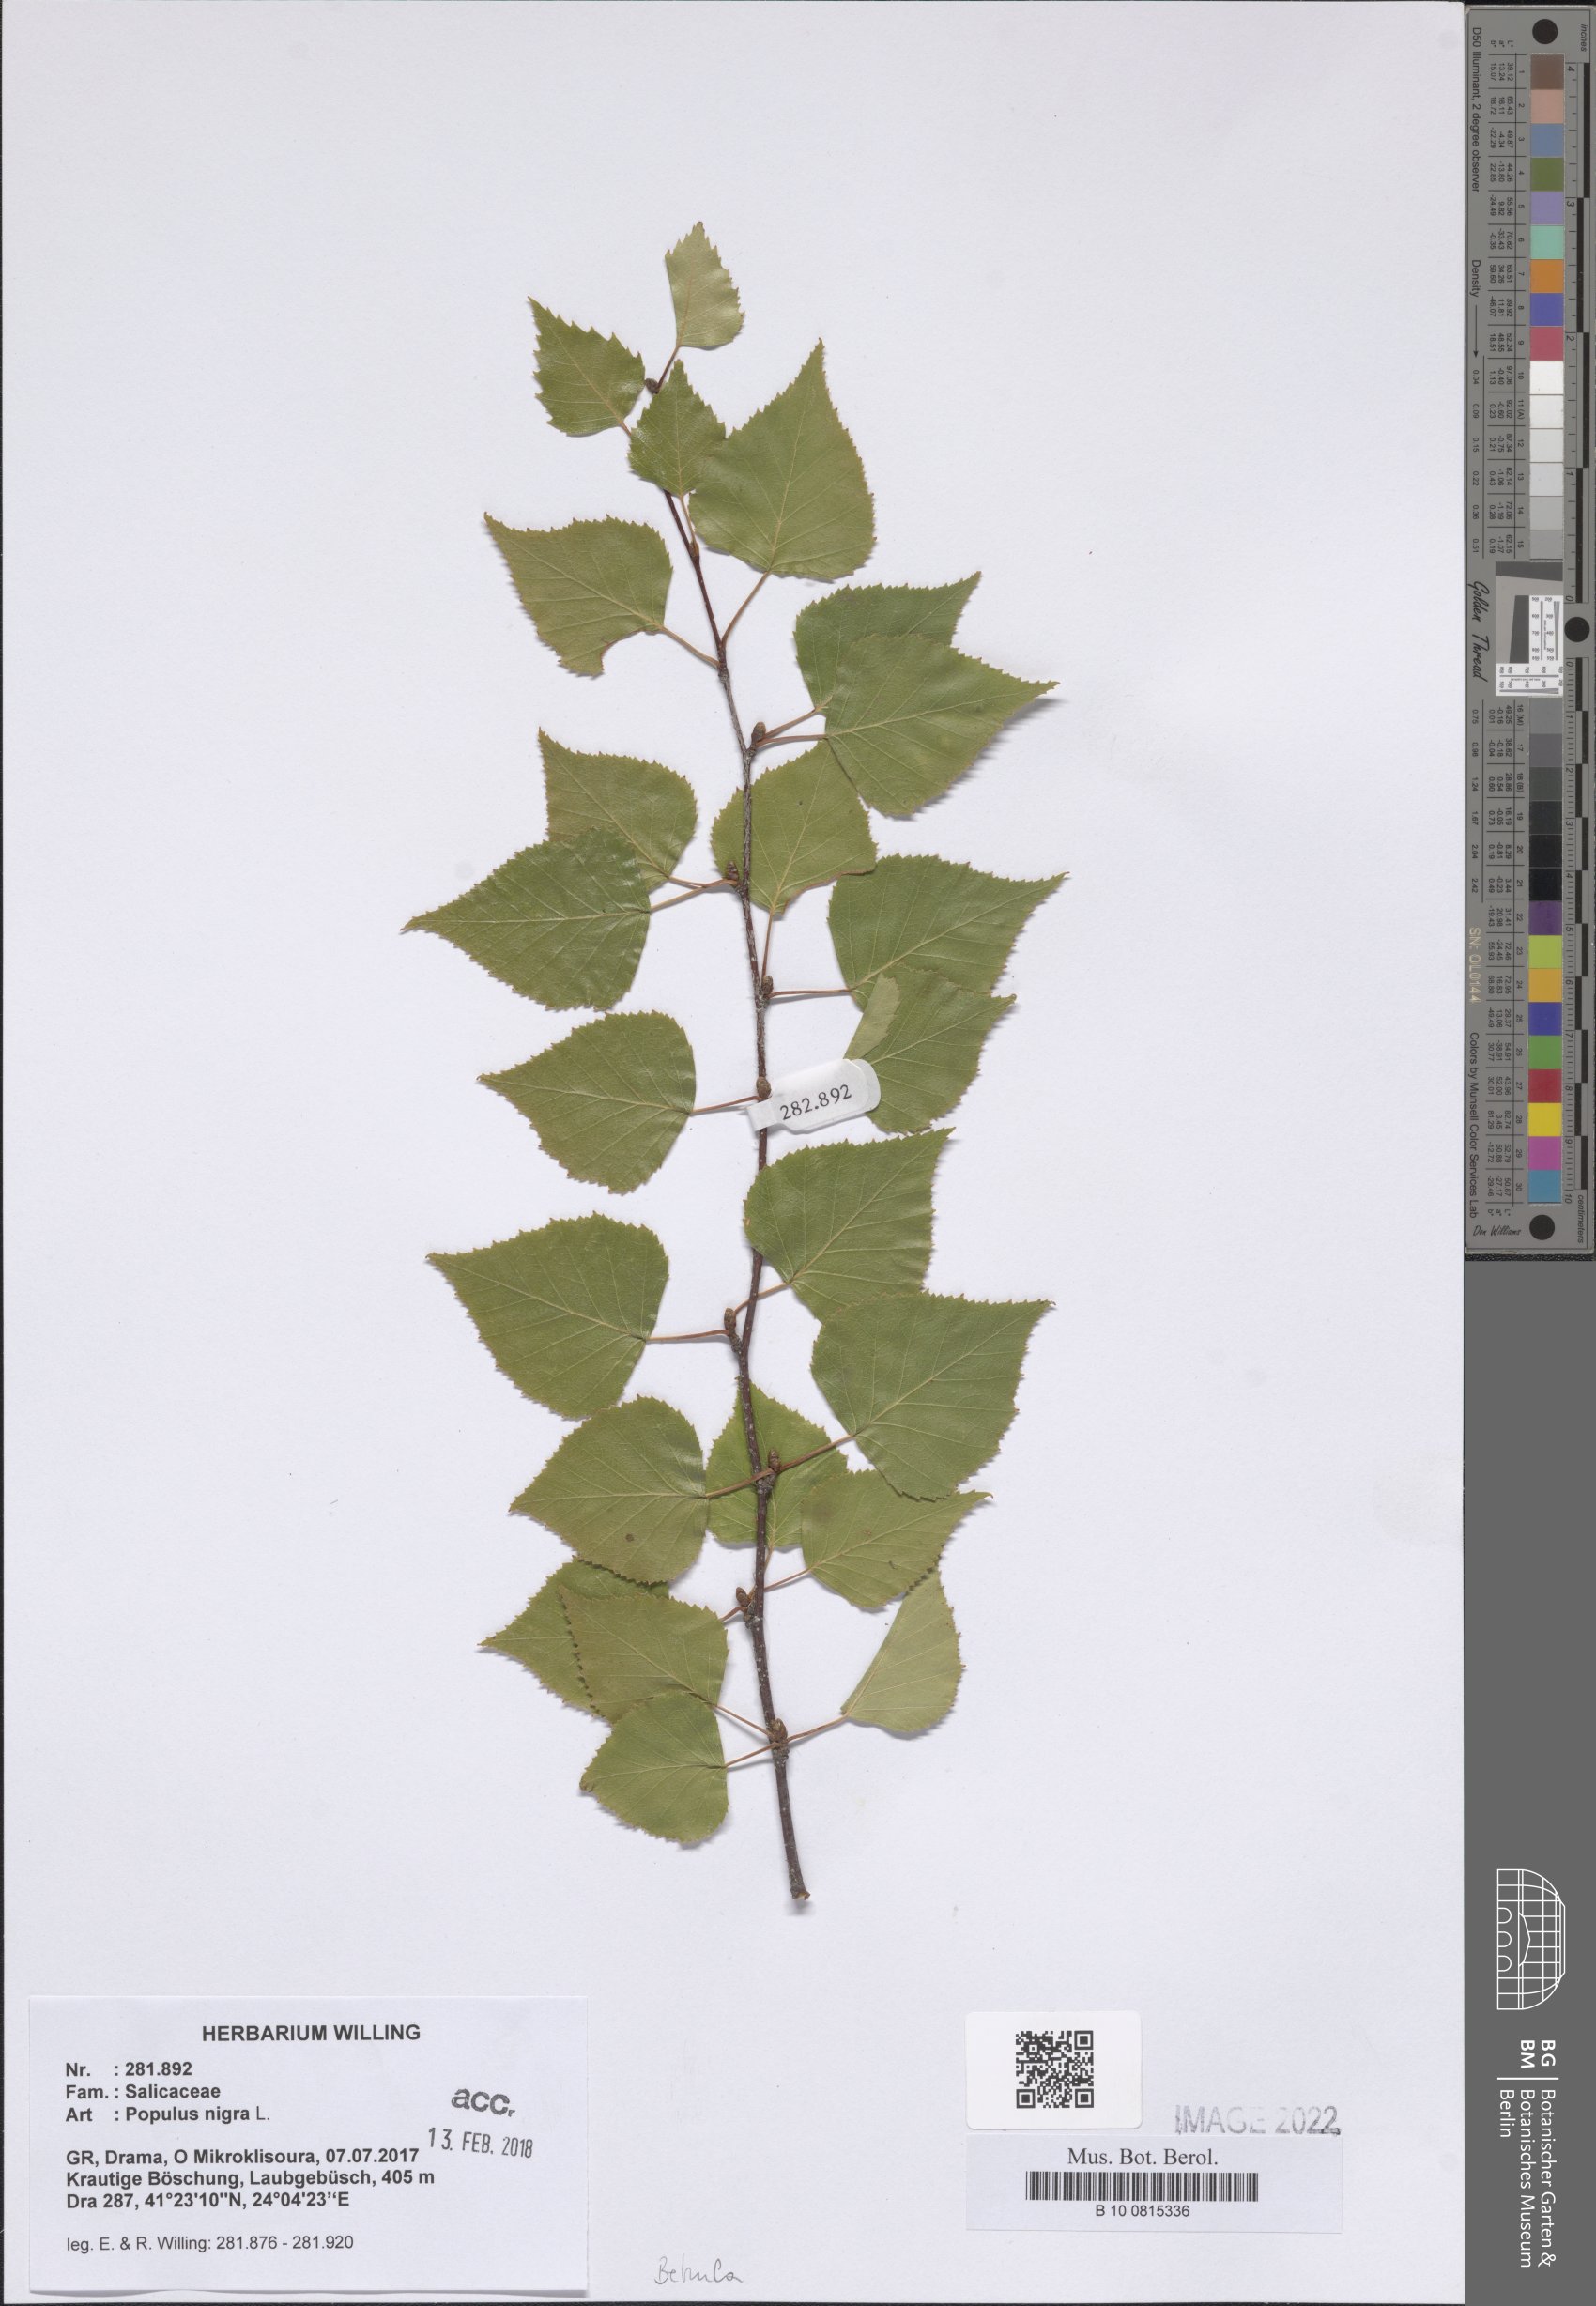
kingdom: Plantae
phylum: Tracheophyta
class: Magnoliopsida
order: Malpighiales
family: Salicaceae
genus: Populus
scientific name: Populus nigra
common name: Black poplar
